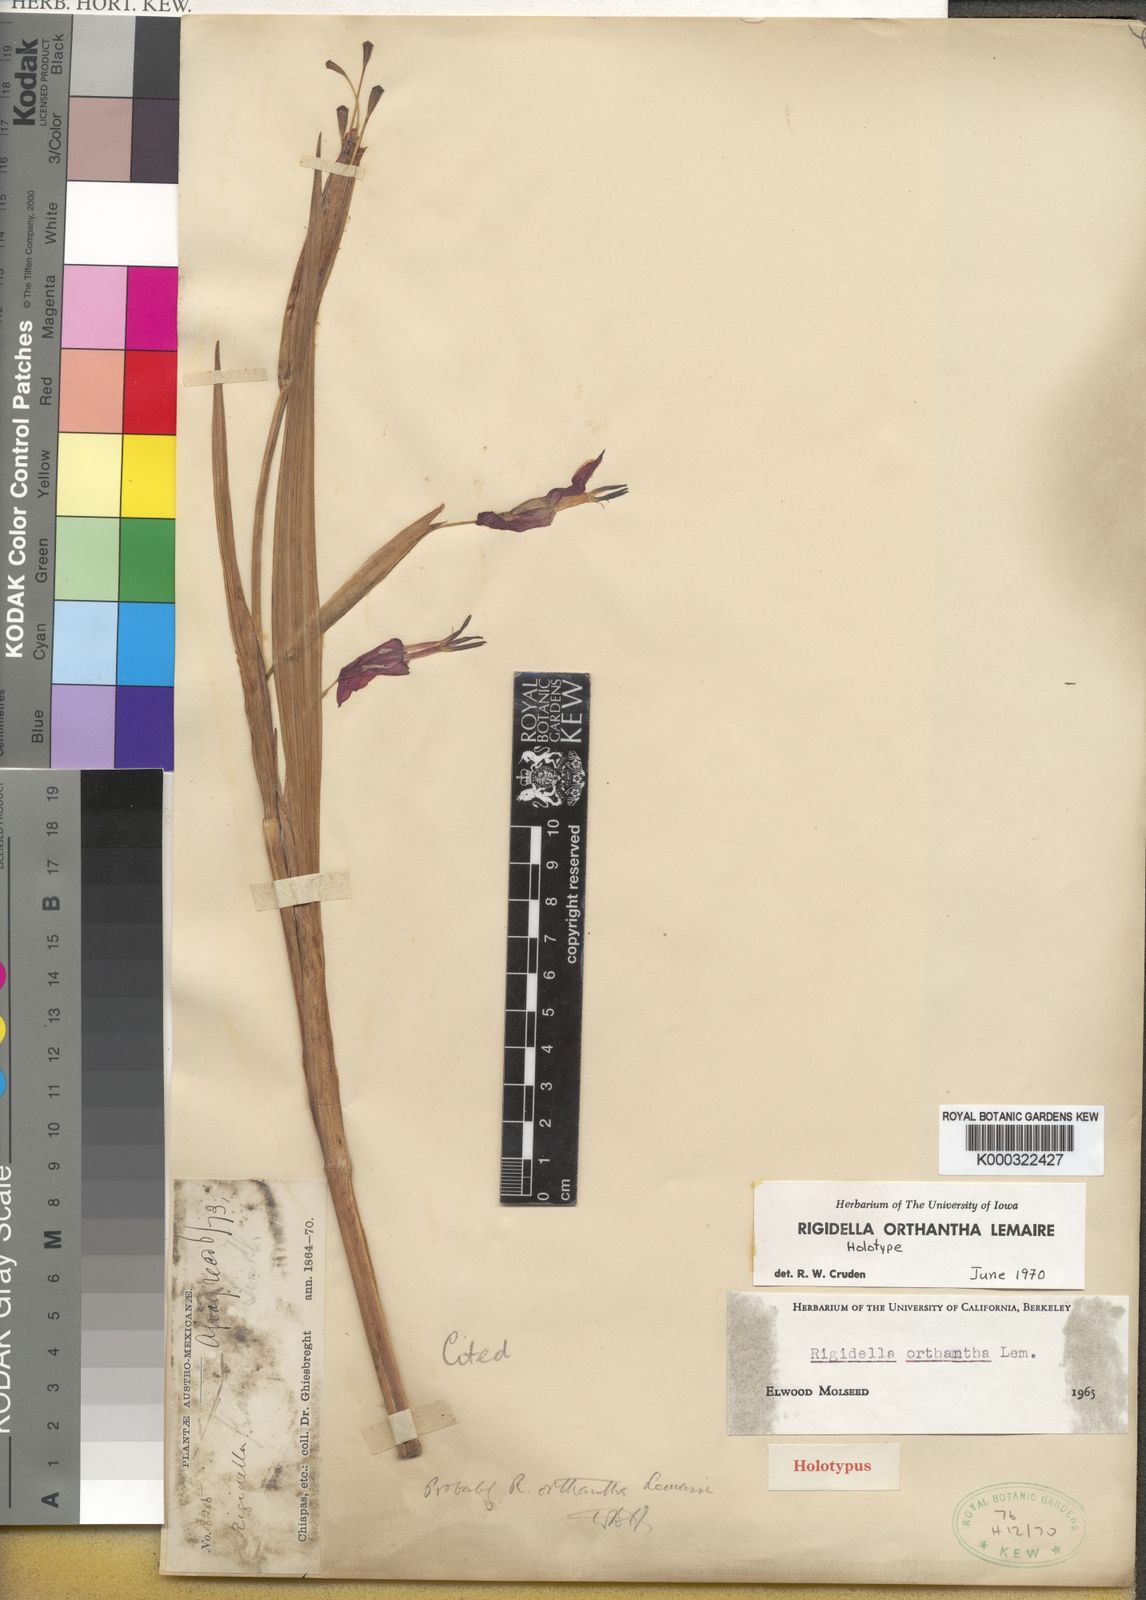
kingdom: Plantae
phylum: Tracheophyta
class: Liliopsida
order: Asparagales
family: Iridaceae
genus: Tigridia
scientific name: Tigridia orthantha
